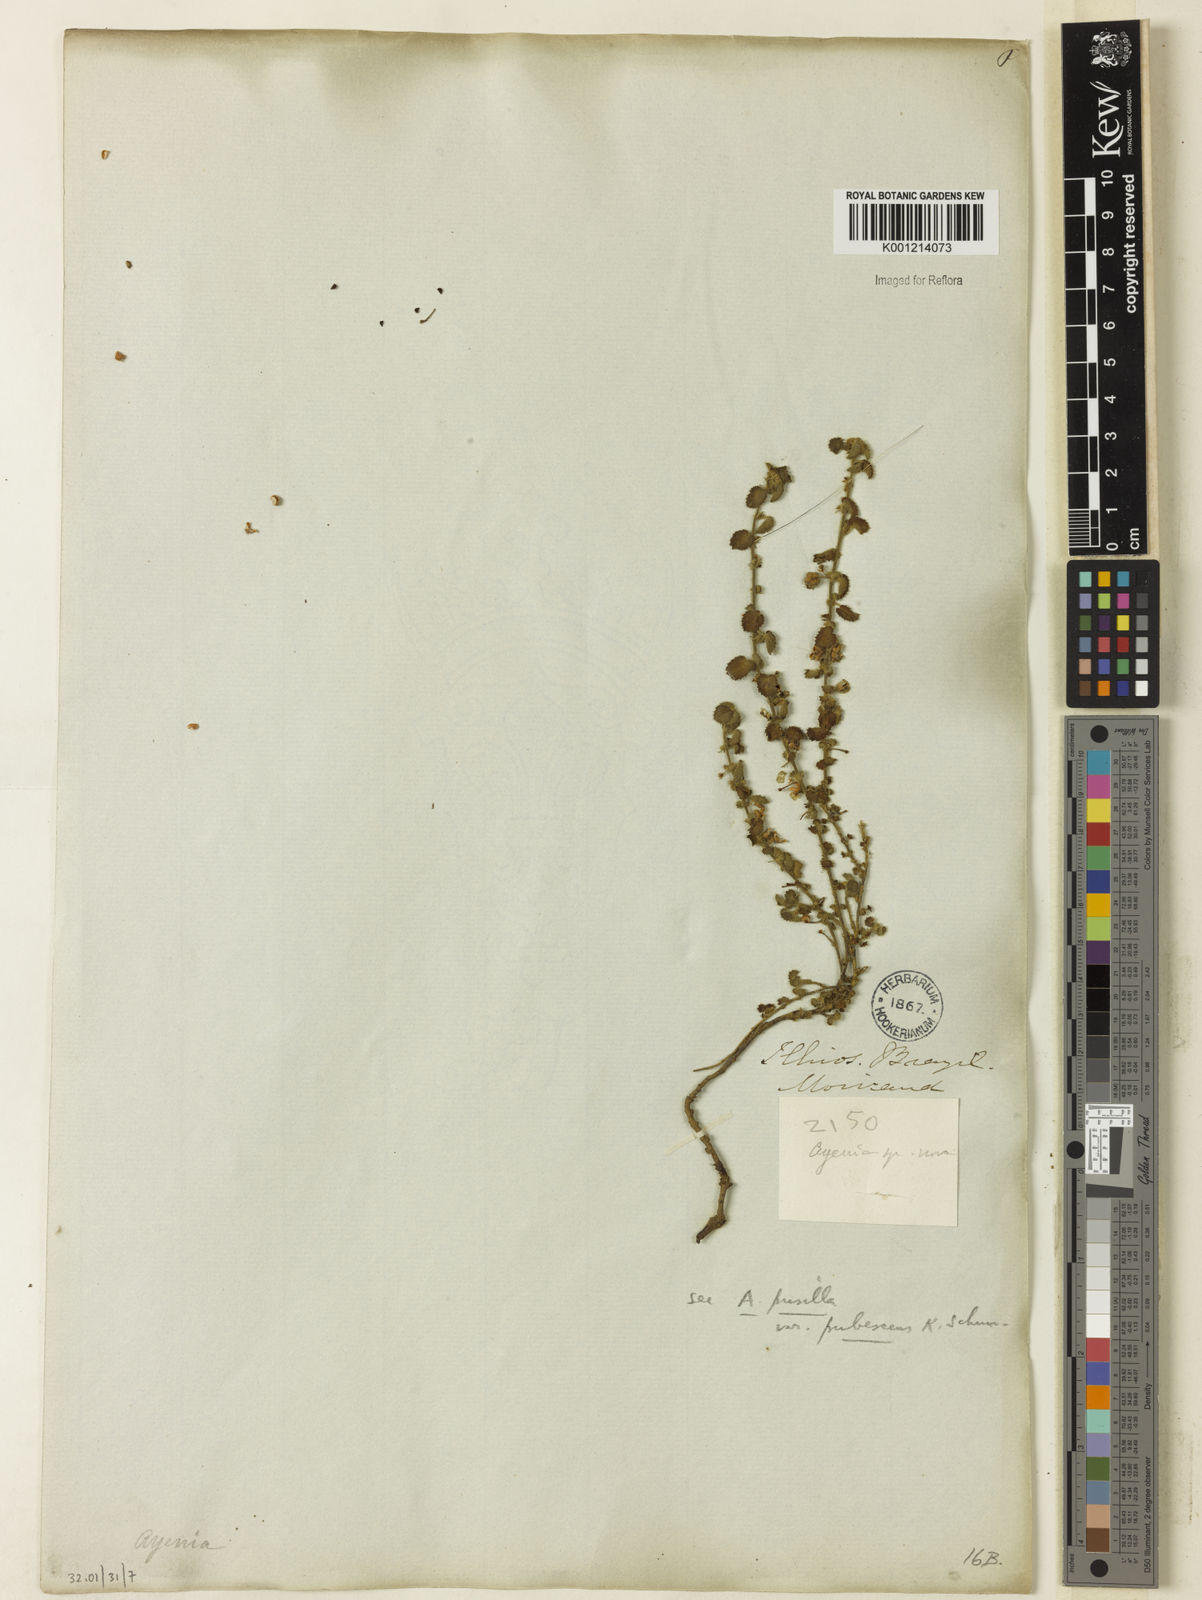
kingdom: Plantae
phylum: Tracheophyta
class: Magnoliopsida
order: Malvales
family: Malvaceae
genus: Ayenia
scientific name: Ayenia hirta
